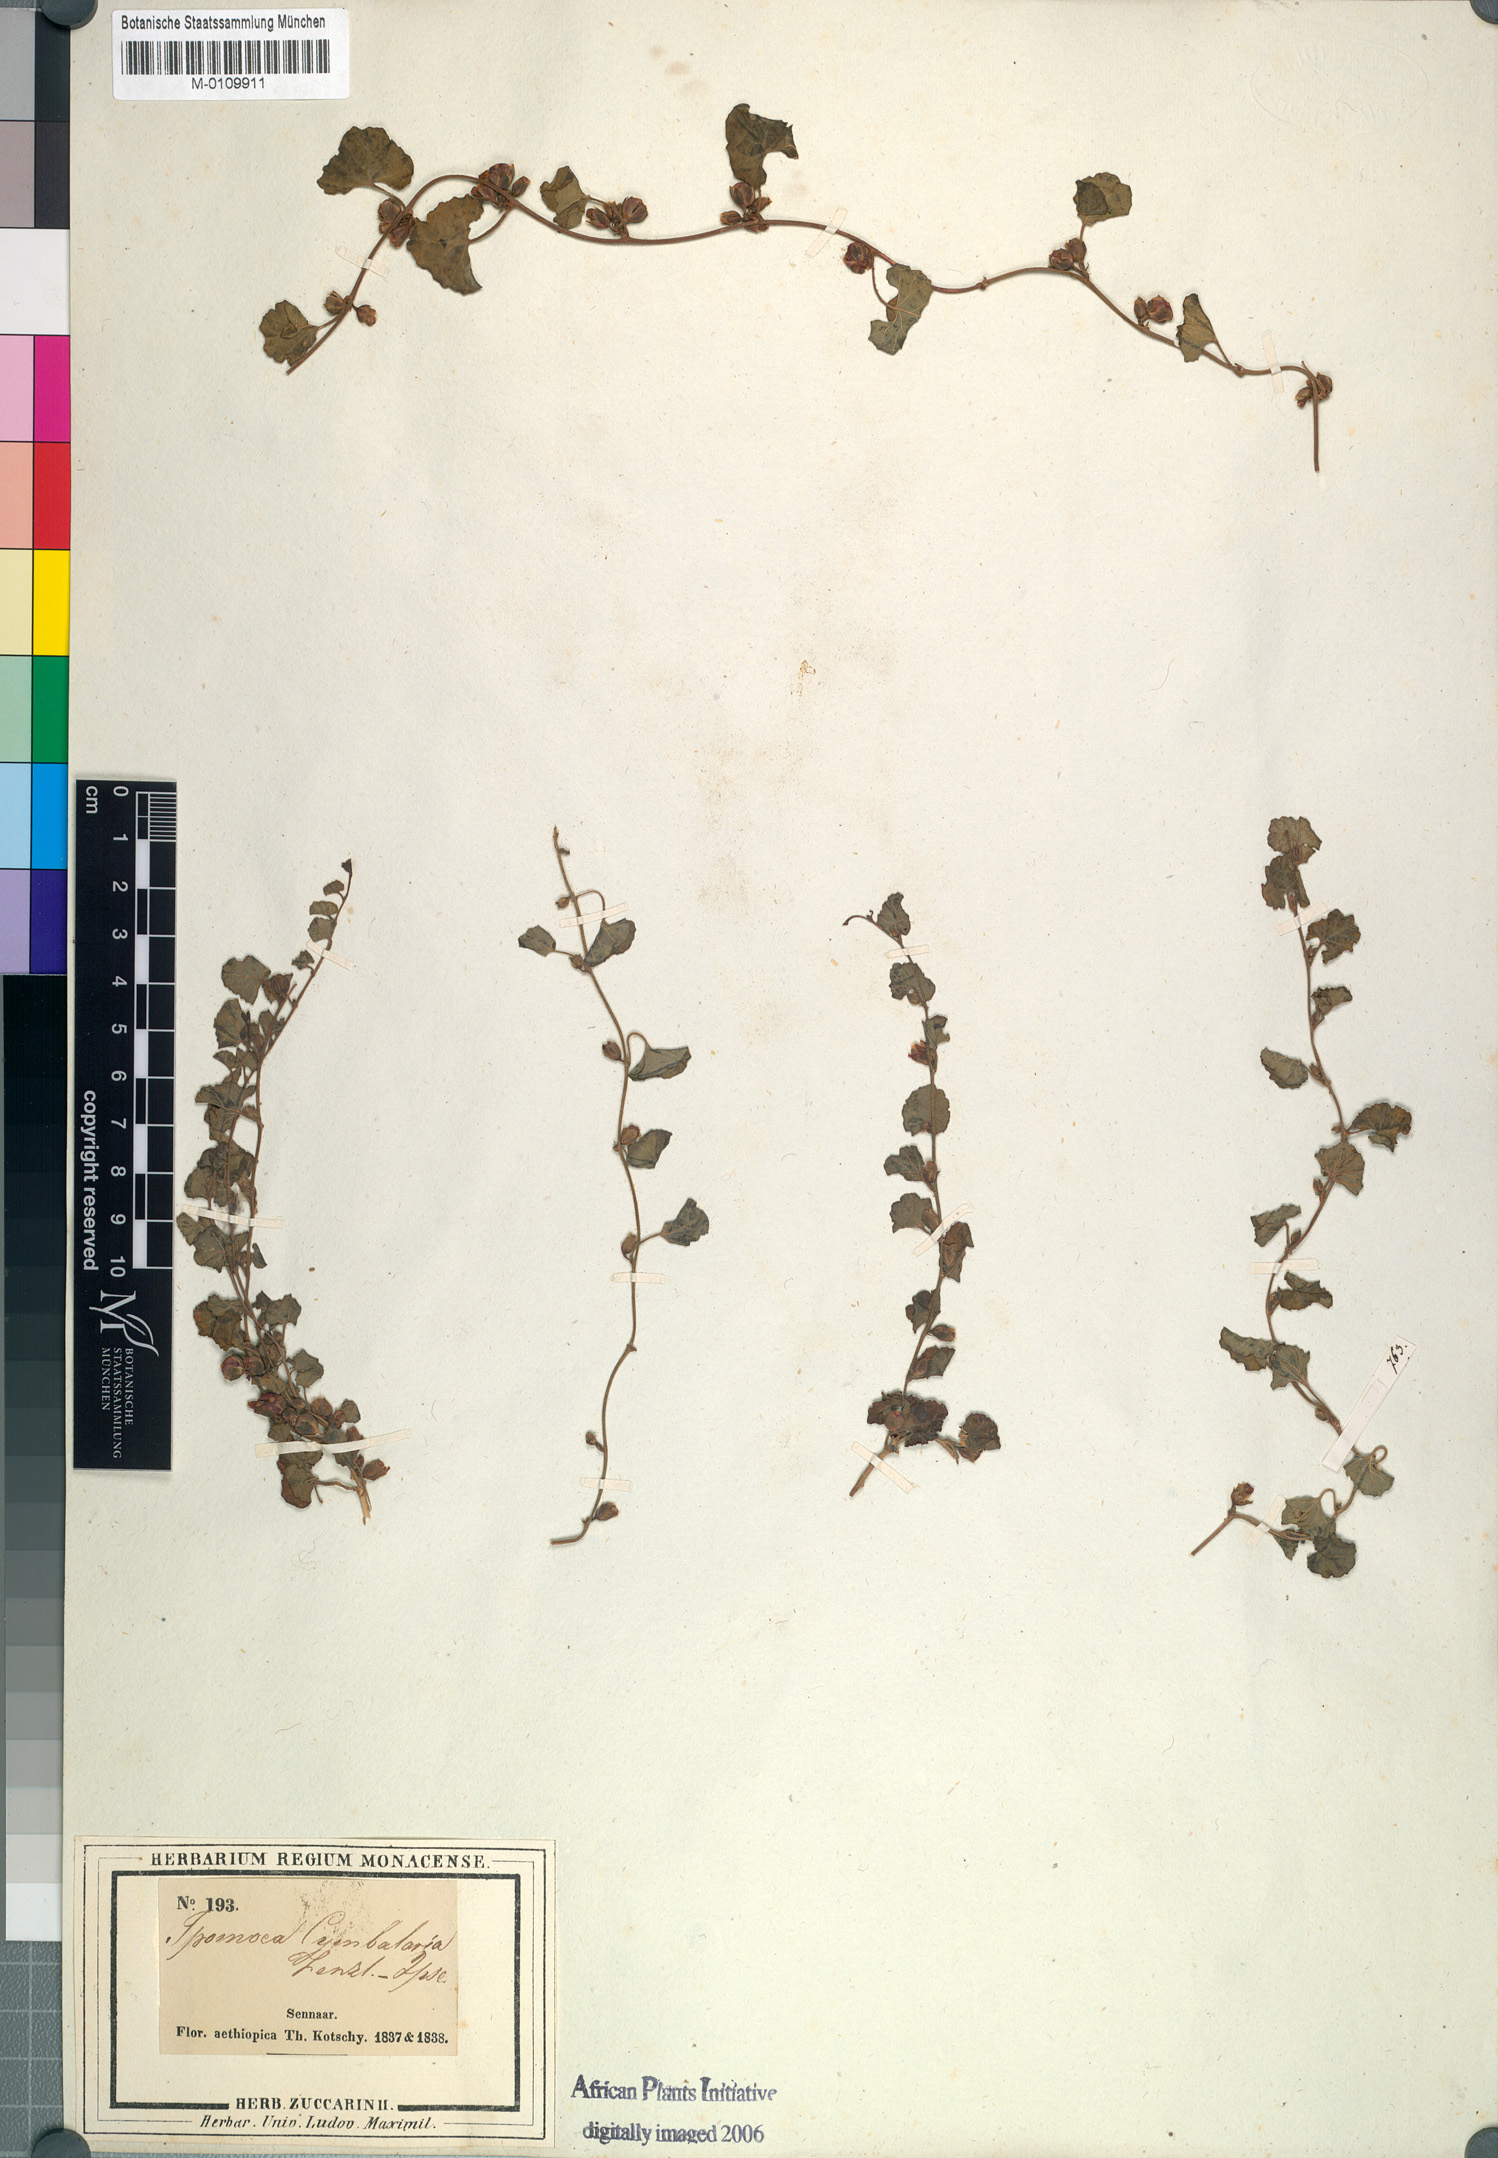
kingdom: Plantae
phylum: Tracheophyta
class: Magnoliopsida
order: Solanales
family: Convolvulaceae
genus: Merremia
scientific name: Merremia emarginata
